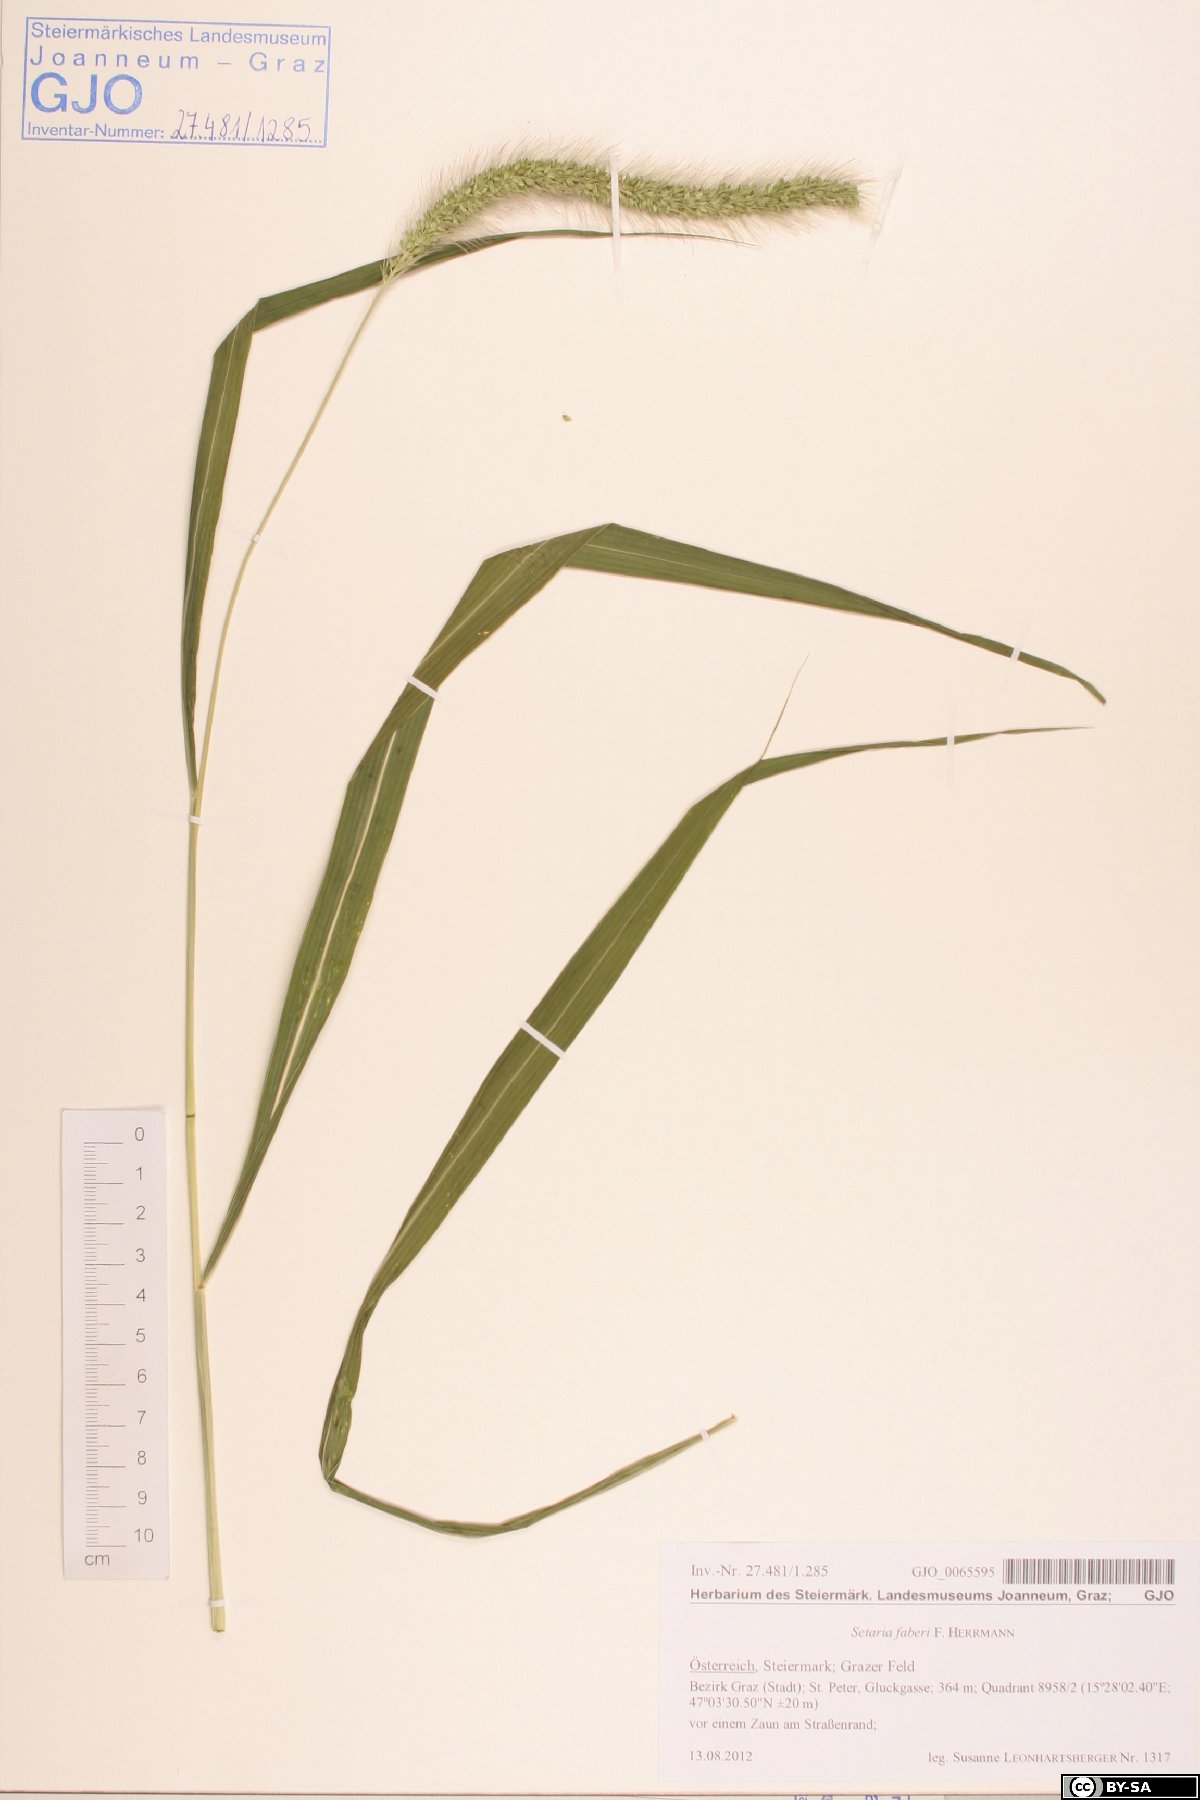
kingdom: Plantae
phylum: Tracheophyta
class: Liliopsida
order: Poales
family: Poaceae
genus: Setaria
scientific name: Setaria faberi
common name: Nodding bristle-grass
